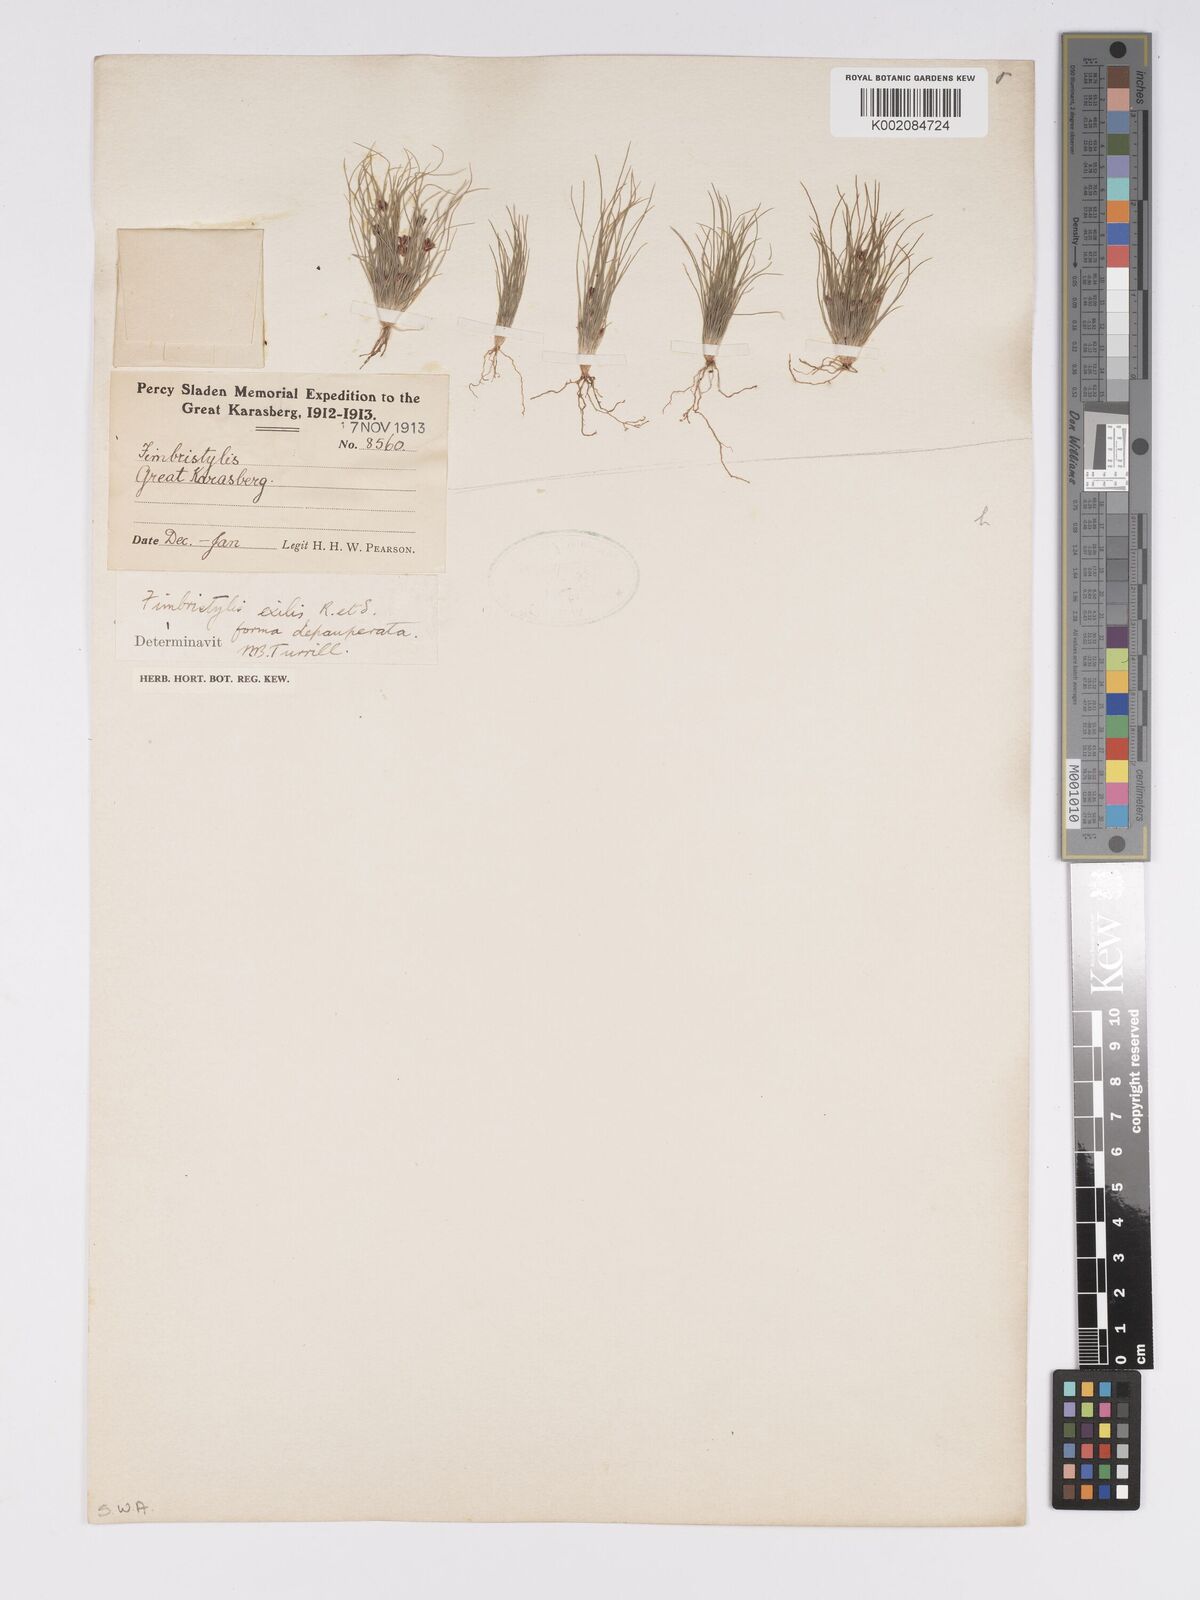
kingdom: Plantae
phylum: Tracheophyta
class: Liliopsida
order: Poales
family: Cyperaceae
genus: Bulbostylis
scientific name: Bulbostylis hispidula
